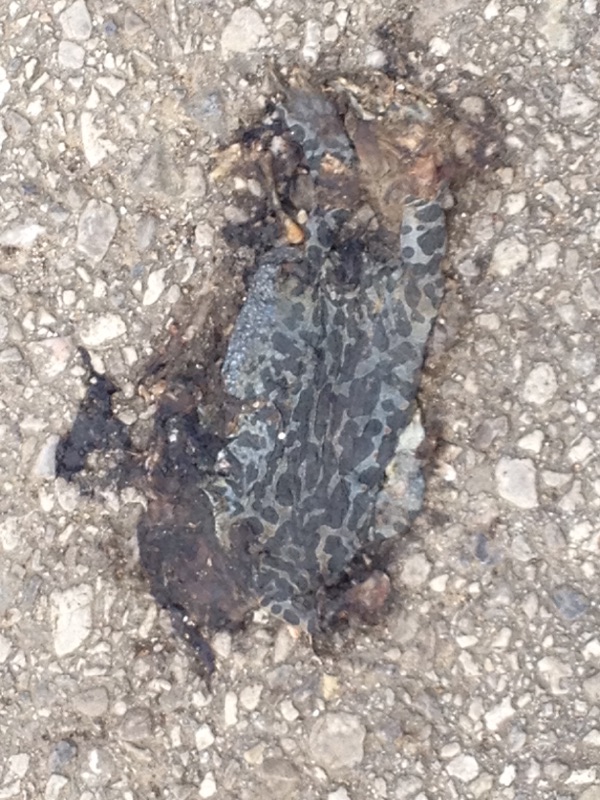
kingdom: Animalia
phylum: Chordata
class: Amphibia
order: Anura
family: Bufonidae
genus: Bufotes
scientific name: Bufotes viridis
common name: European green toad
